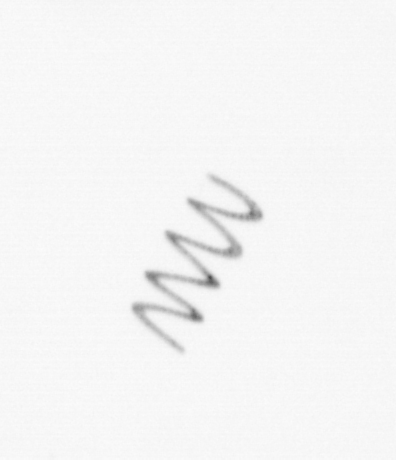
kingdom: Chromista
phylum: Ochrophyta
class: Bacillariophyceae
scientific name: Bacillariophyceae
